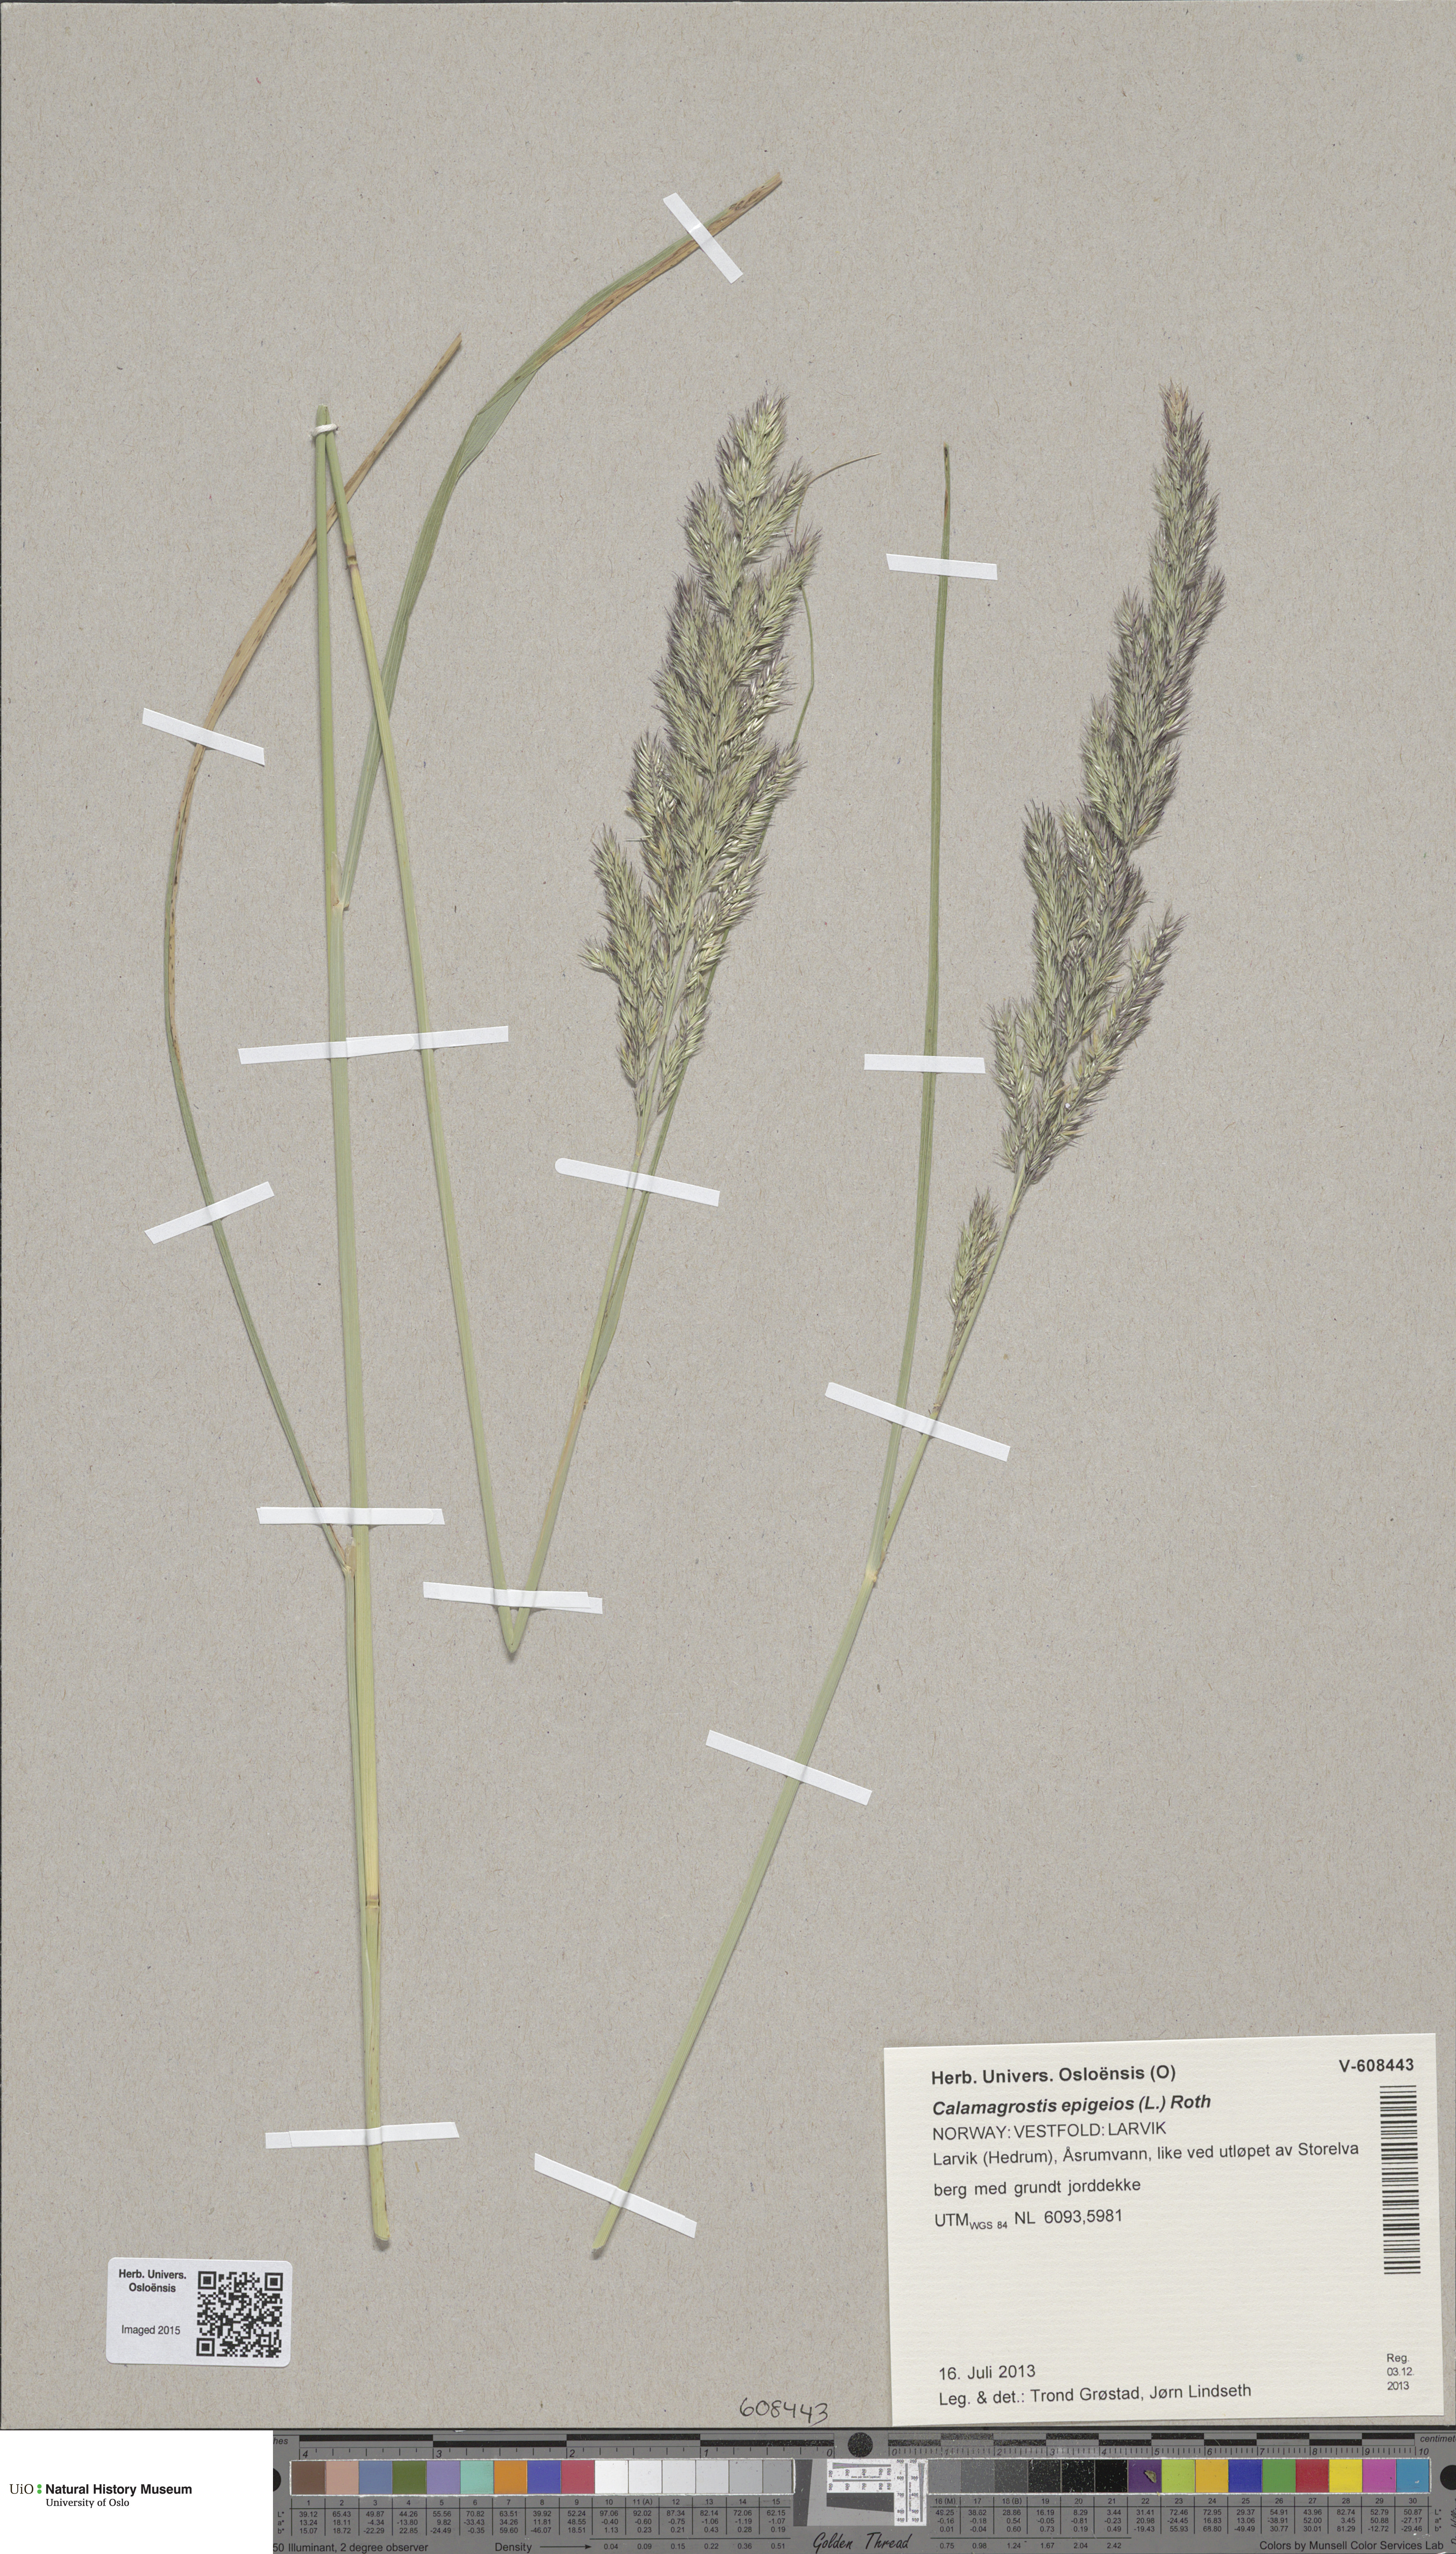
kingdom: Plantae
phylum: Tracheophyta
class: Liliopsida
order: Poales
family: Poaceae
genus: Calamagrostis
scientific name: Calamagrostis epigejos
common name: Wood small-reed
